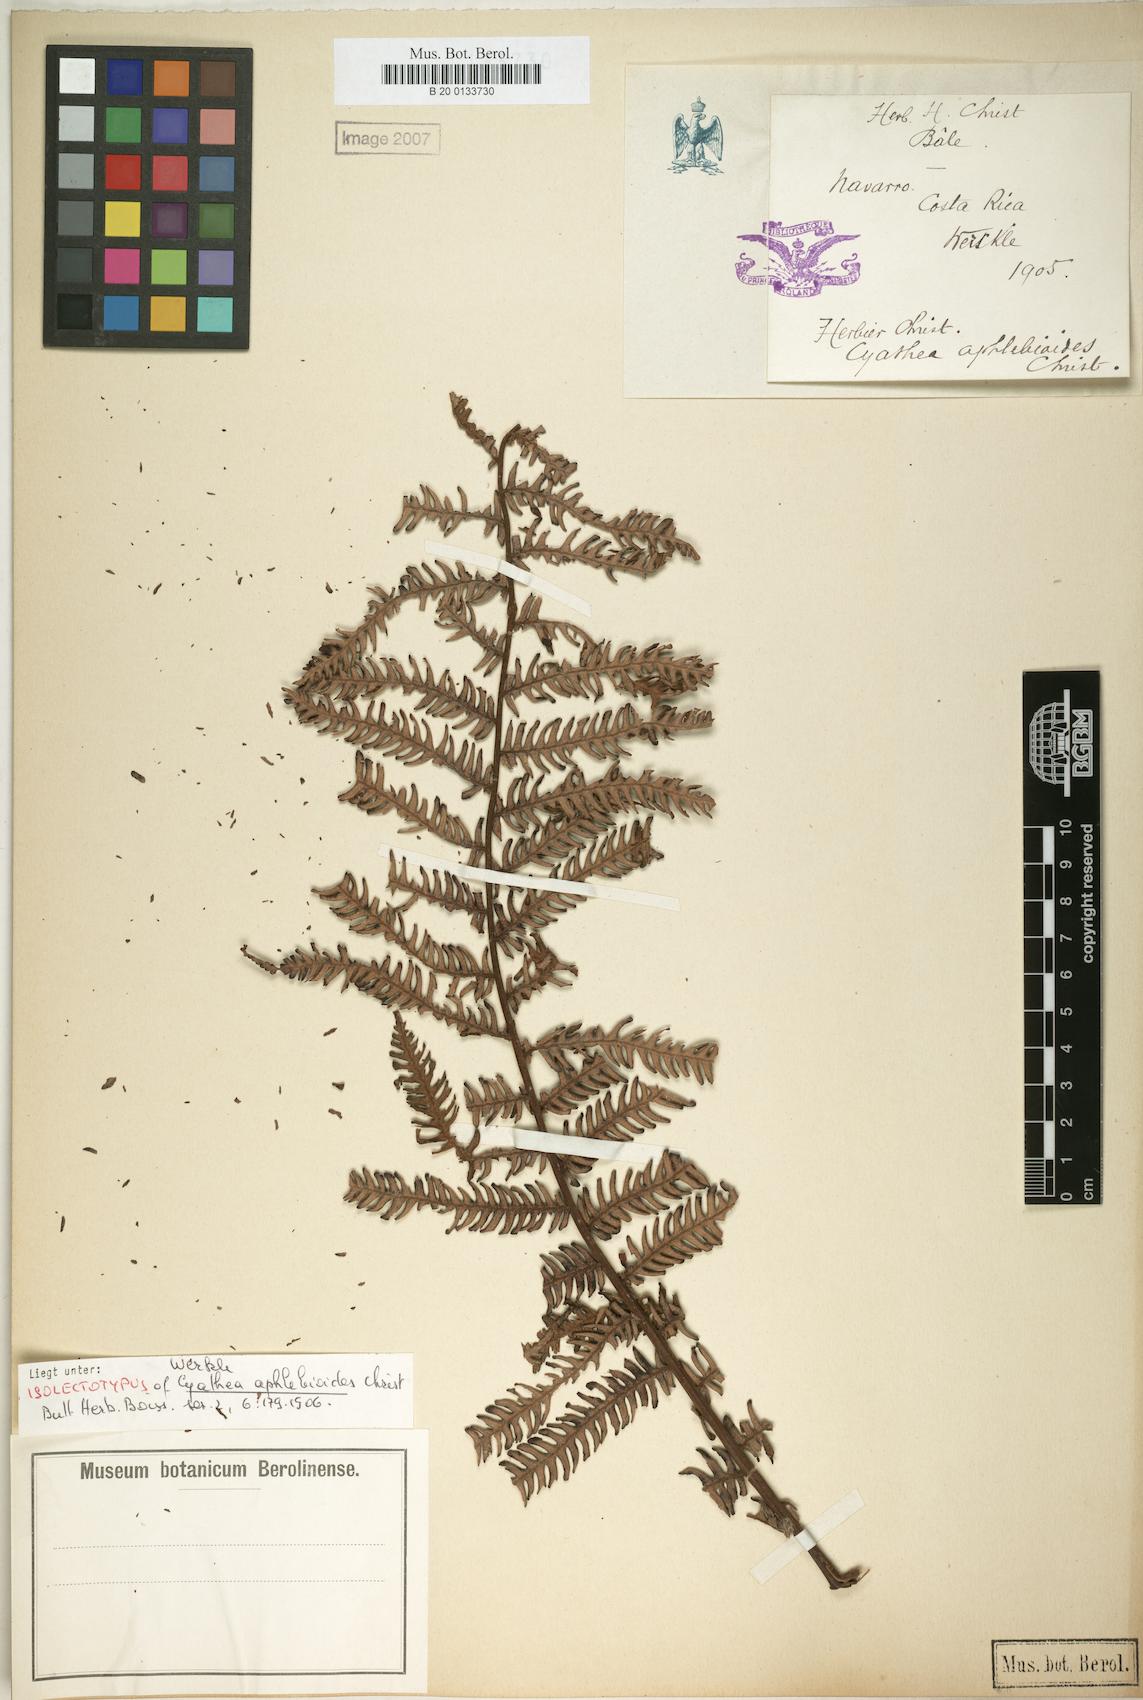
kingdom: Plantae
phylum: Tracheophyta
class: Polypodiopsida
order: Cyatheales
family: Cyatheaceae
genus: Cyathea
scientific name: Cyathea bicrenata
